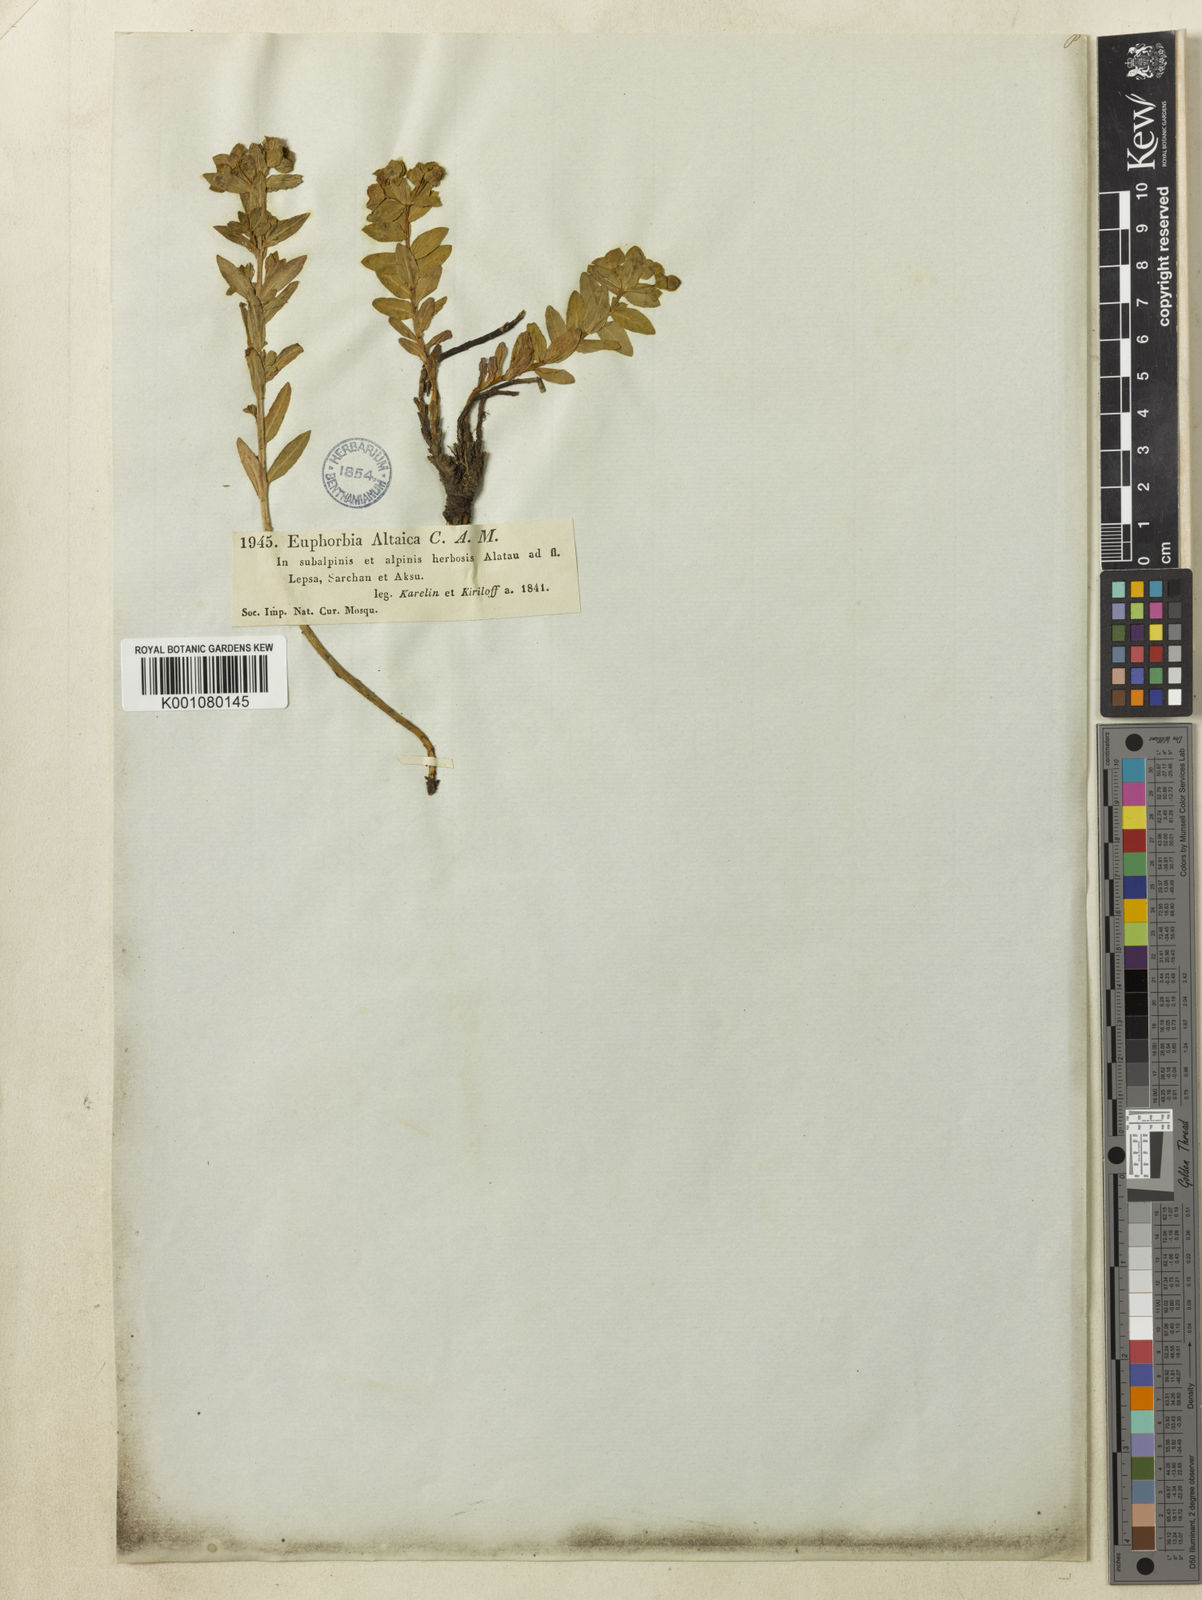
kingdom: Plantae
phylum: Tracheophyta
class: Magnoliopsida
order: Malpighiales
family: Euphorbiaceae
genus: Euphorbia
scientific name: Euphorbia alatavica
